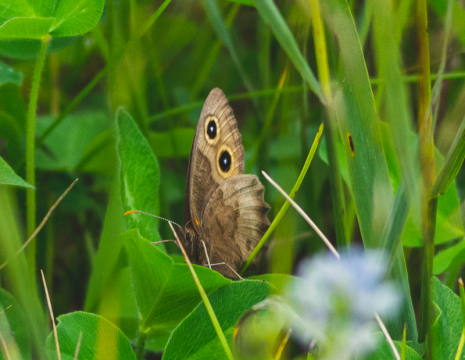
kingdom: Animalia
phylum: Arthropoda
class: Insecta
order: Lepidoptera
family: Nymphalidae
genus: Cercyonis
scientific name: Cercyonis pegala
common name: Common Wood-Nymph
